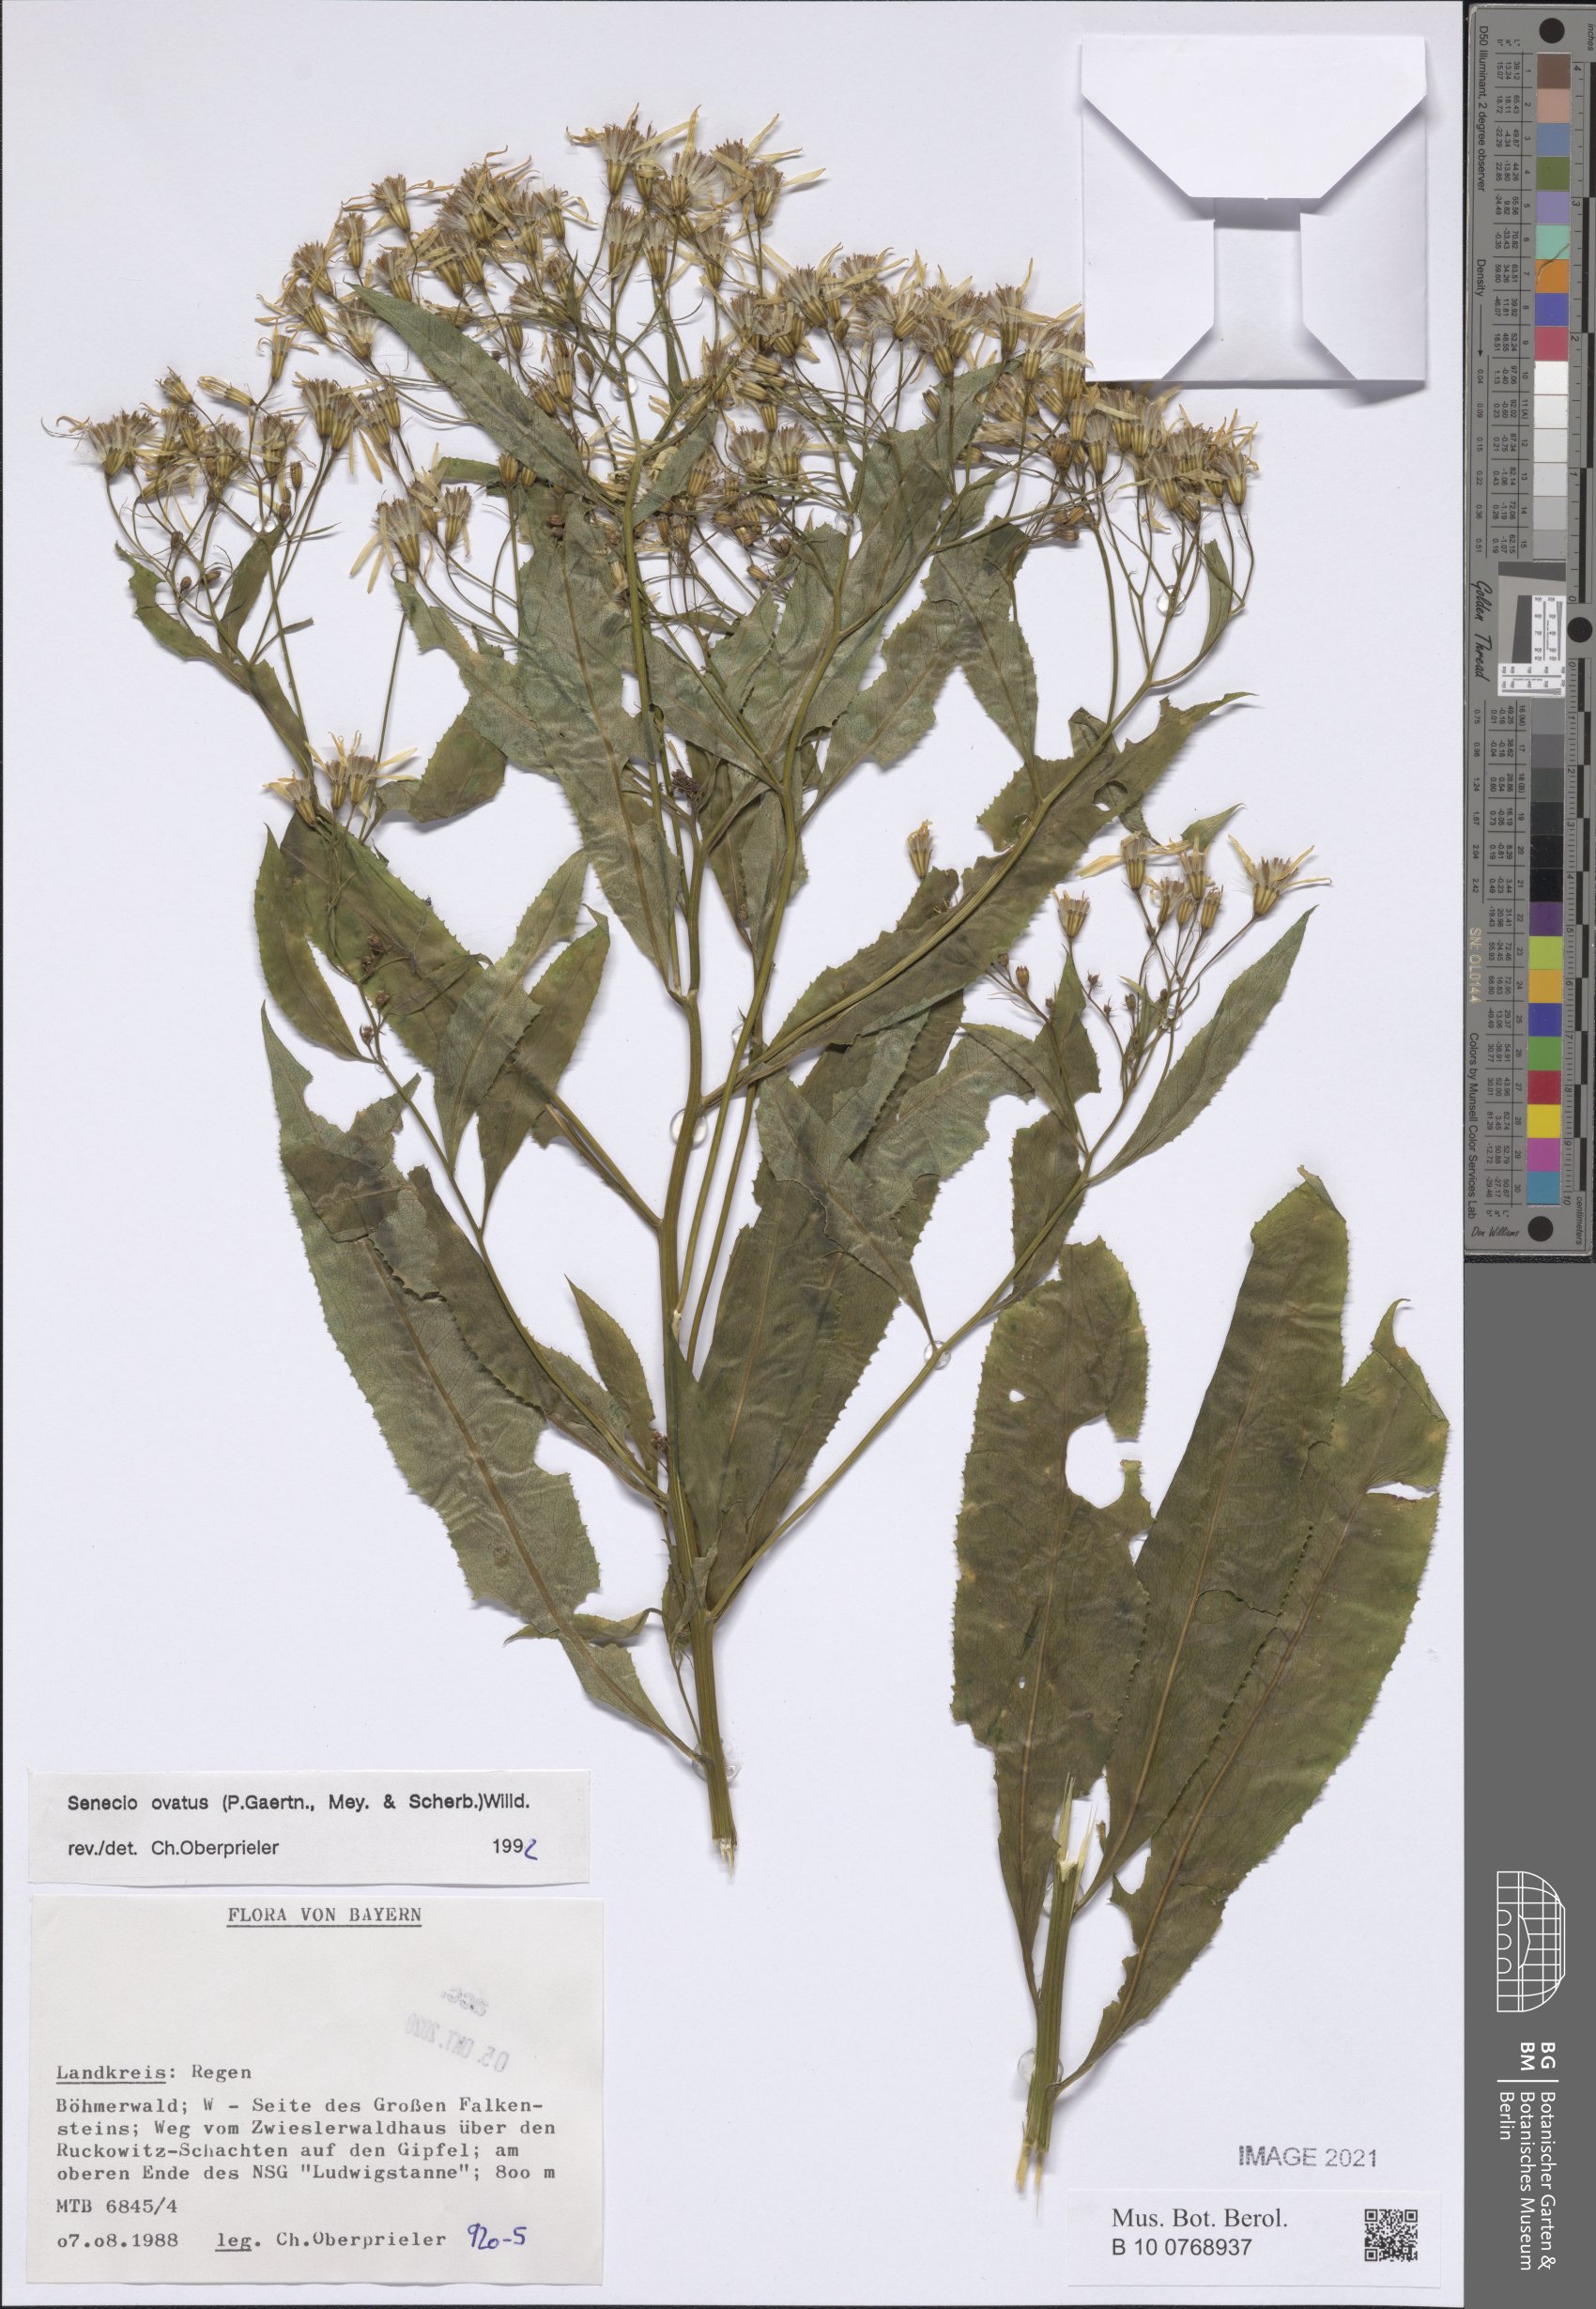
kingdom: Plantae
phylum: Tracheophyta
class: Magnoliopsida
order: Asterales
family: Asteraceae
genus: Senecio
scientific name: Senecio ovatus
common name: Wood ragwort
